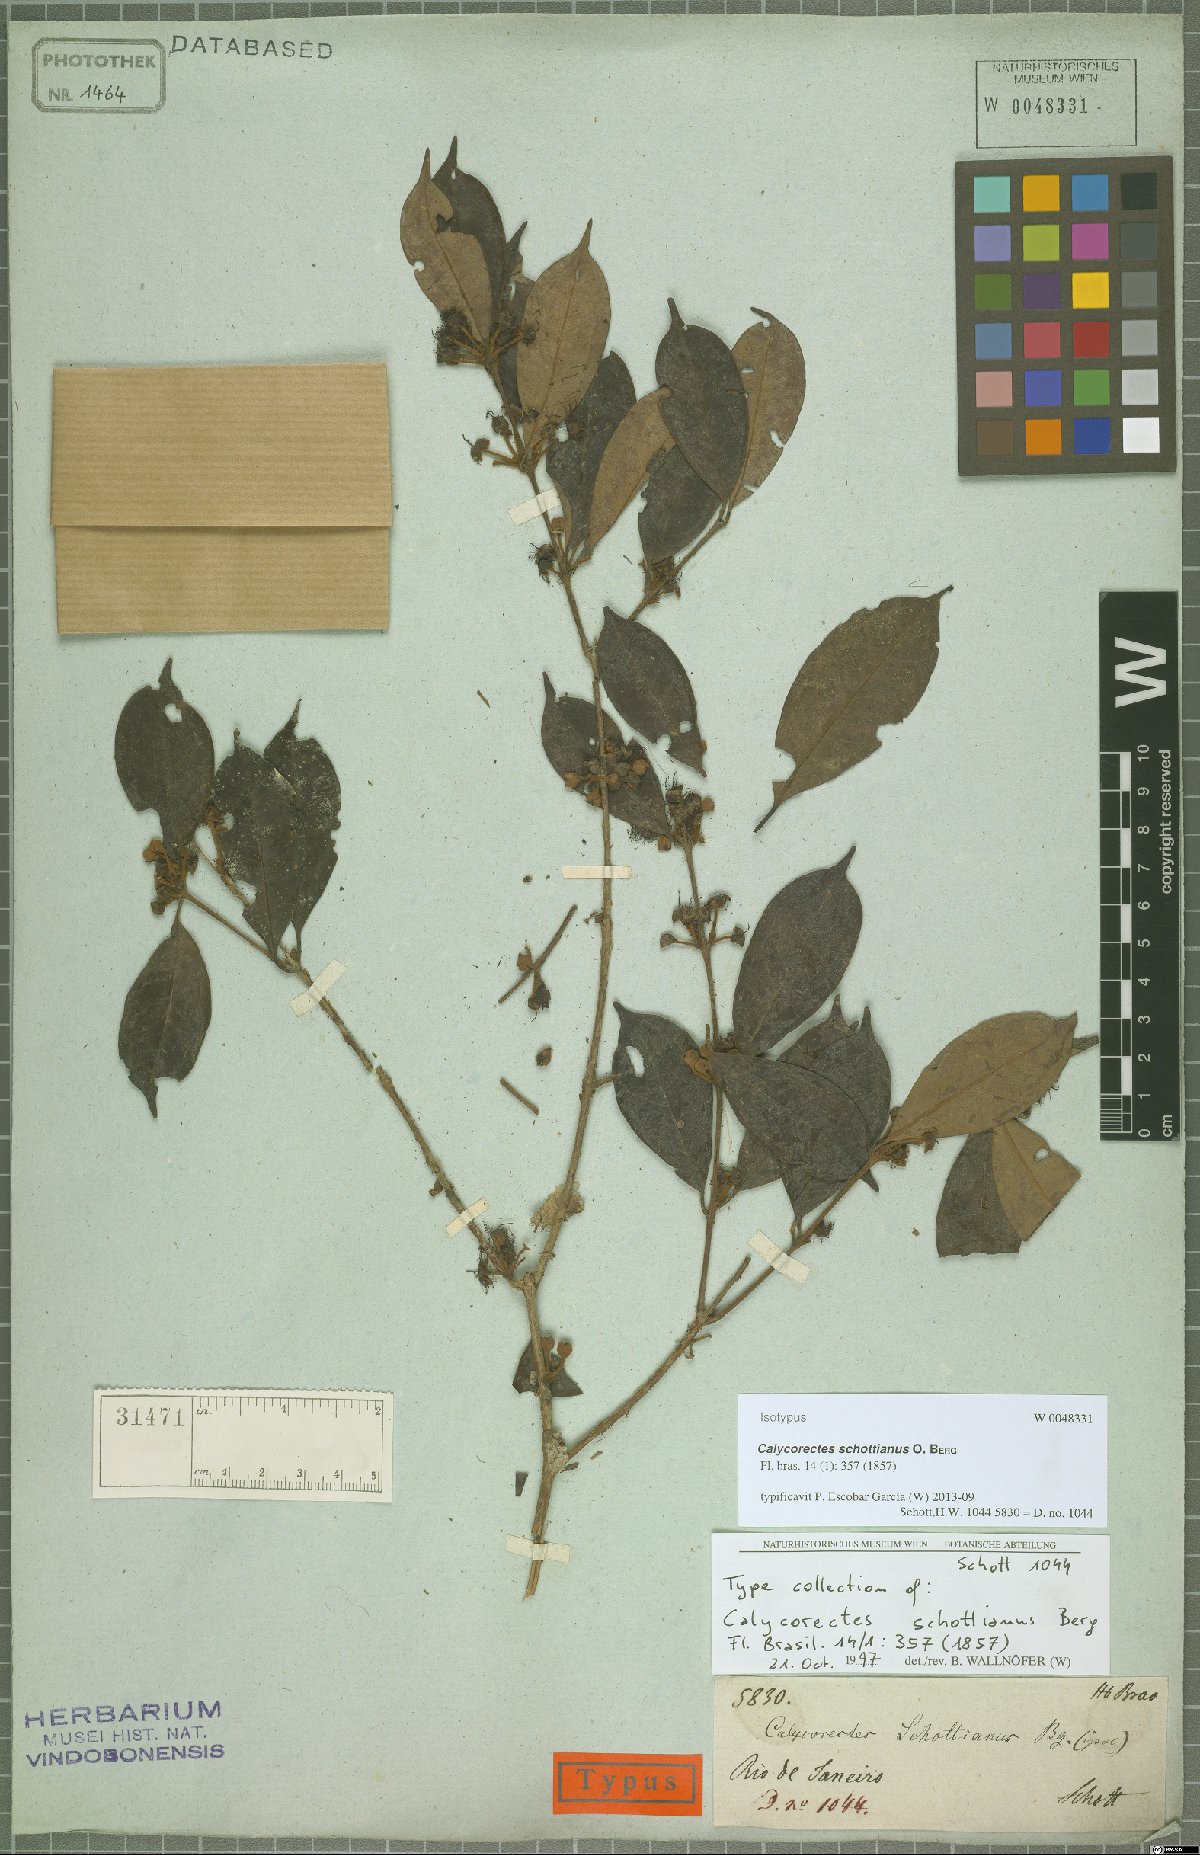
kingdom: Plantae
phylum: Tracheophyta
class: Magnoliopsida
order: Myrtales
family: Myrtaceae
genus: Calycorectes
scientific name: Calycorectes schottianus
